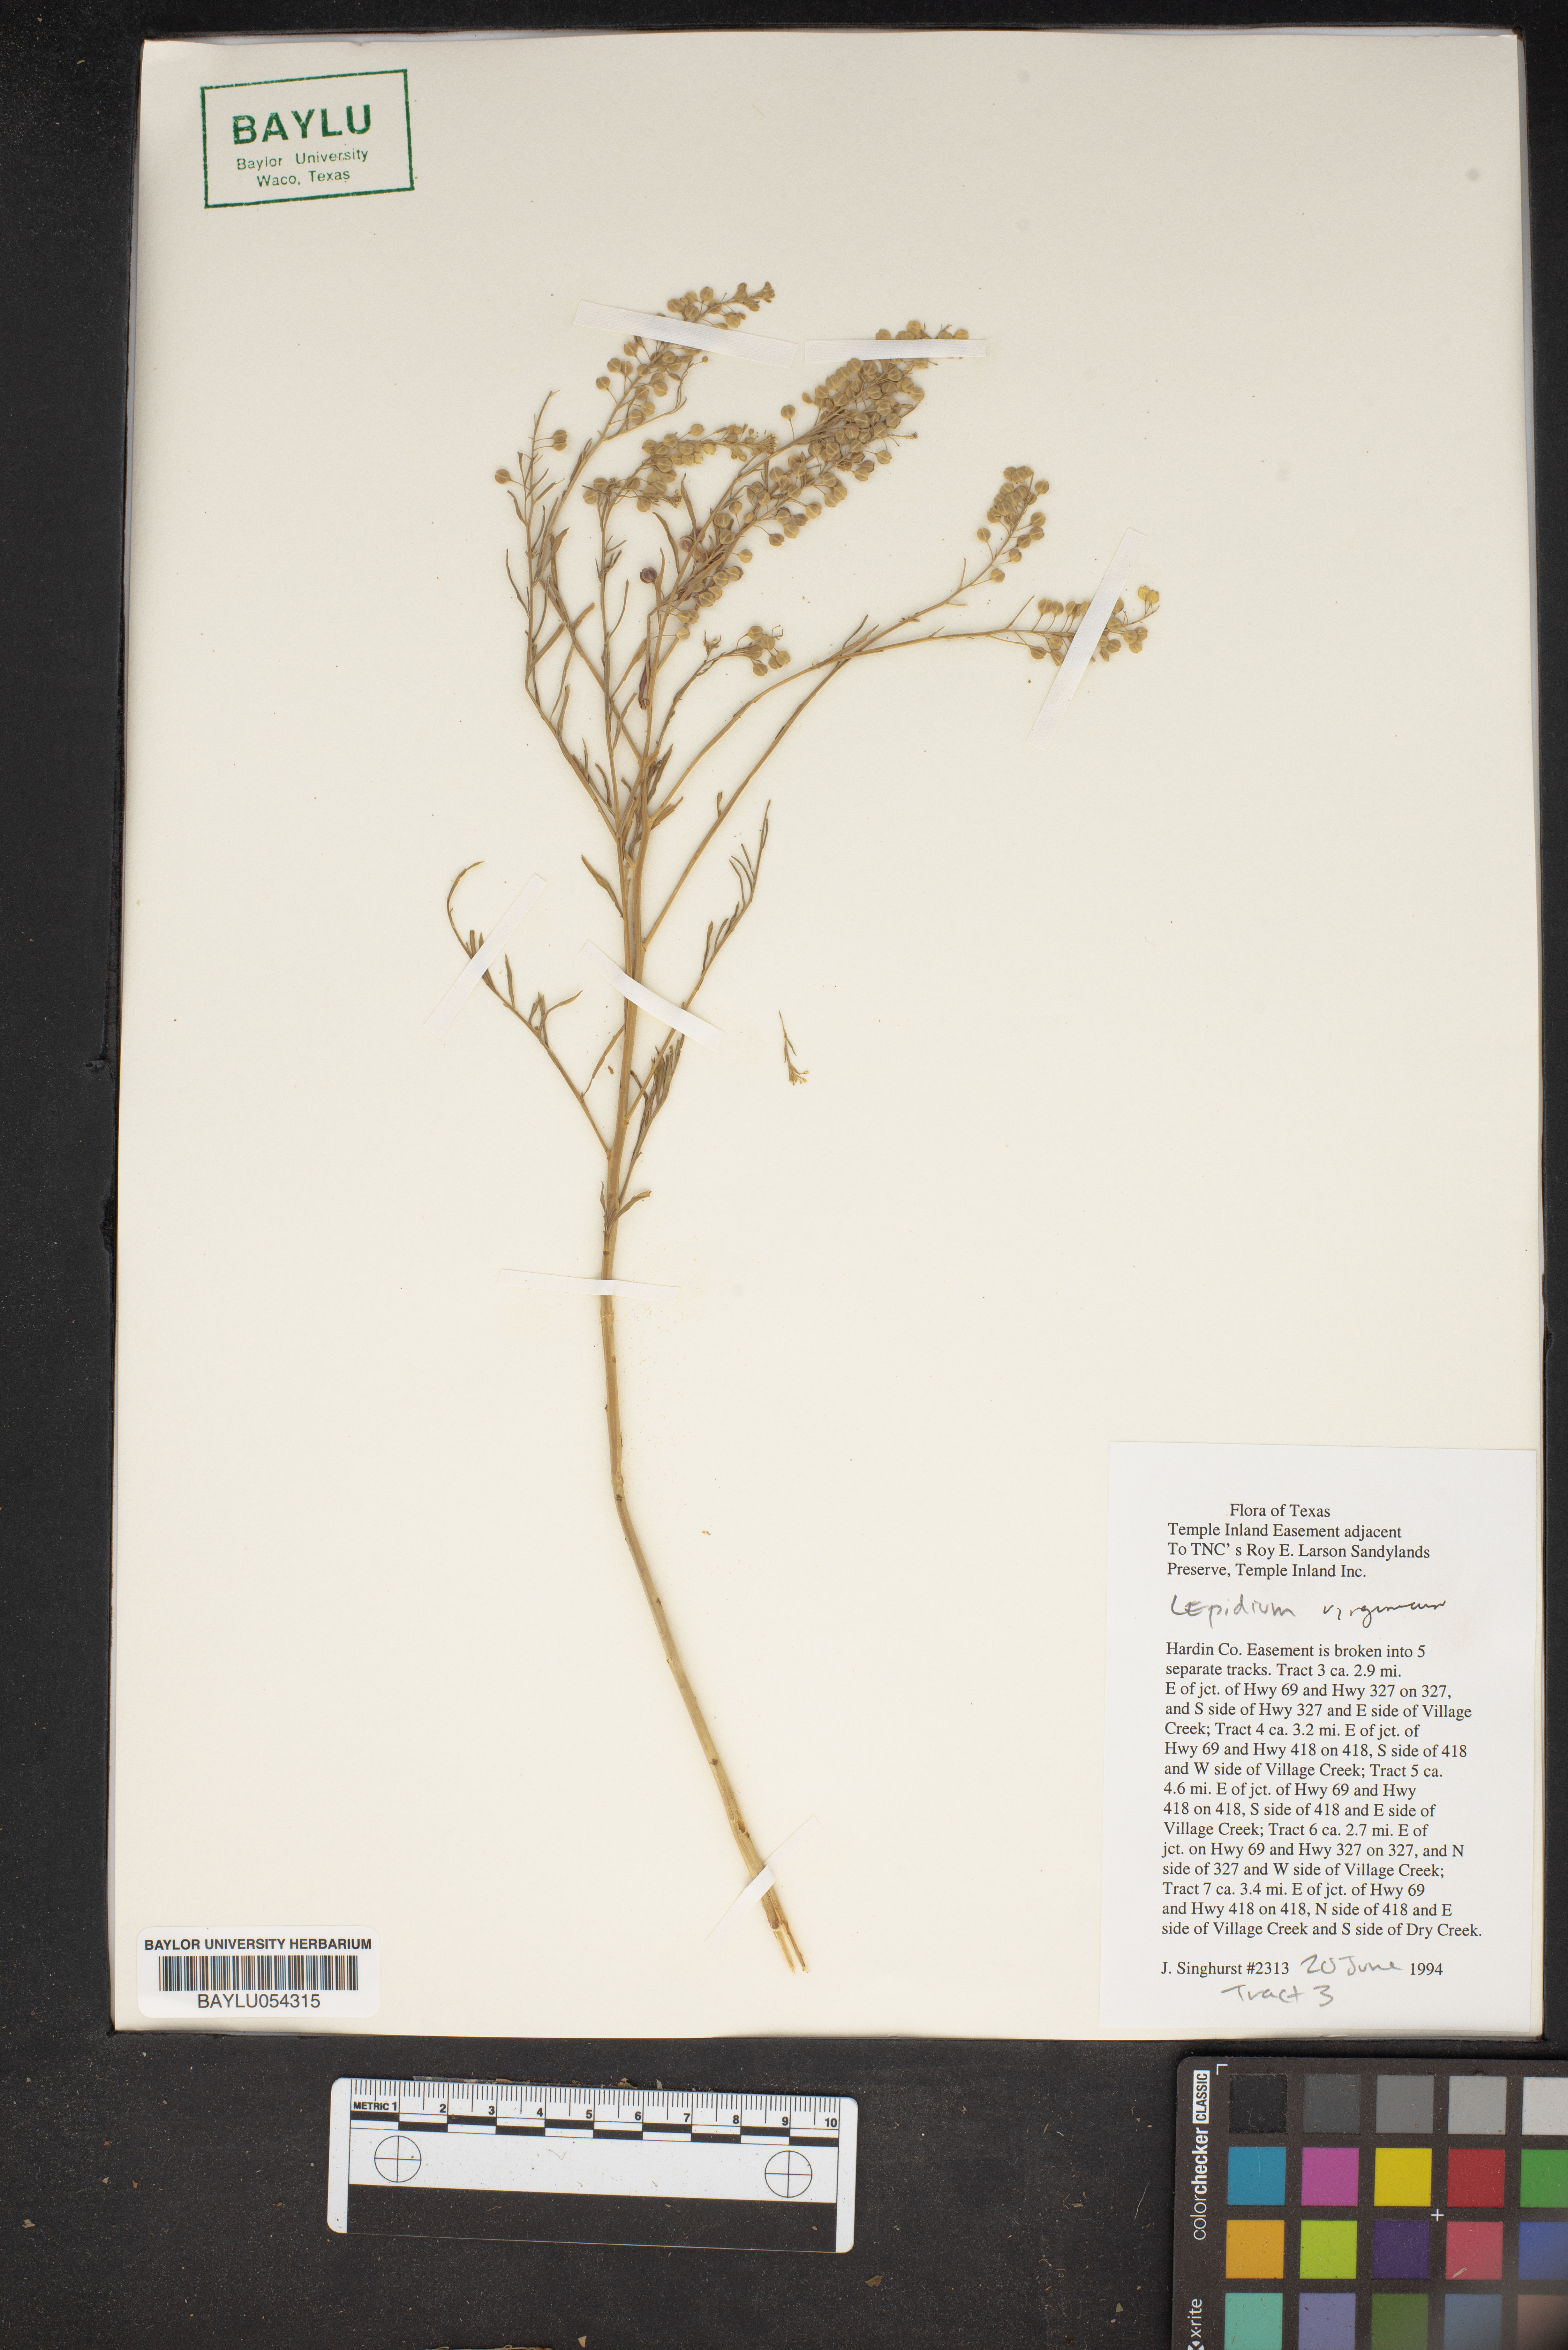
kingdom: Plantae
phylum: Tracheophyta
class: Magnoliopsida
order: Brassicales
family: Brassicaceae
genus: Lepidium
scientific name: Lepidium virginicum
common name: Least pepperwort
